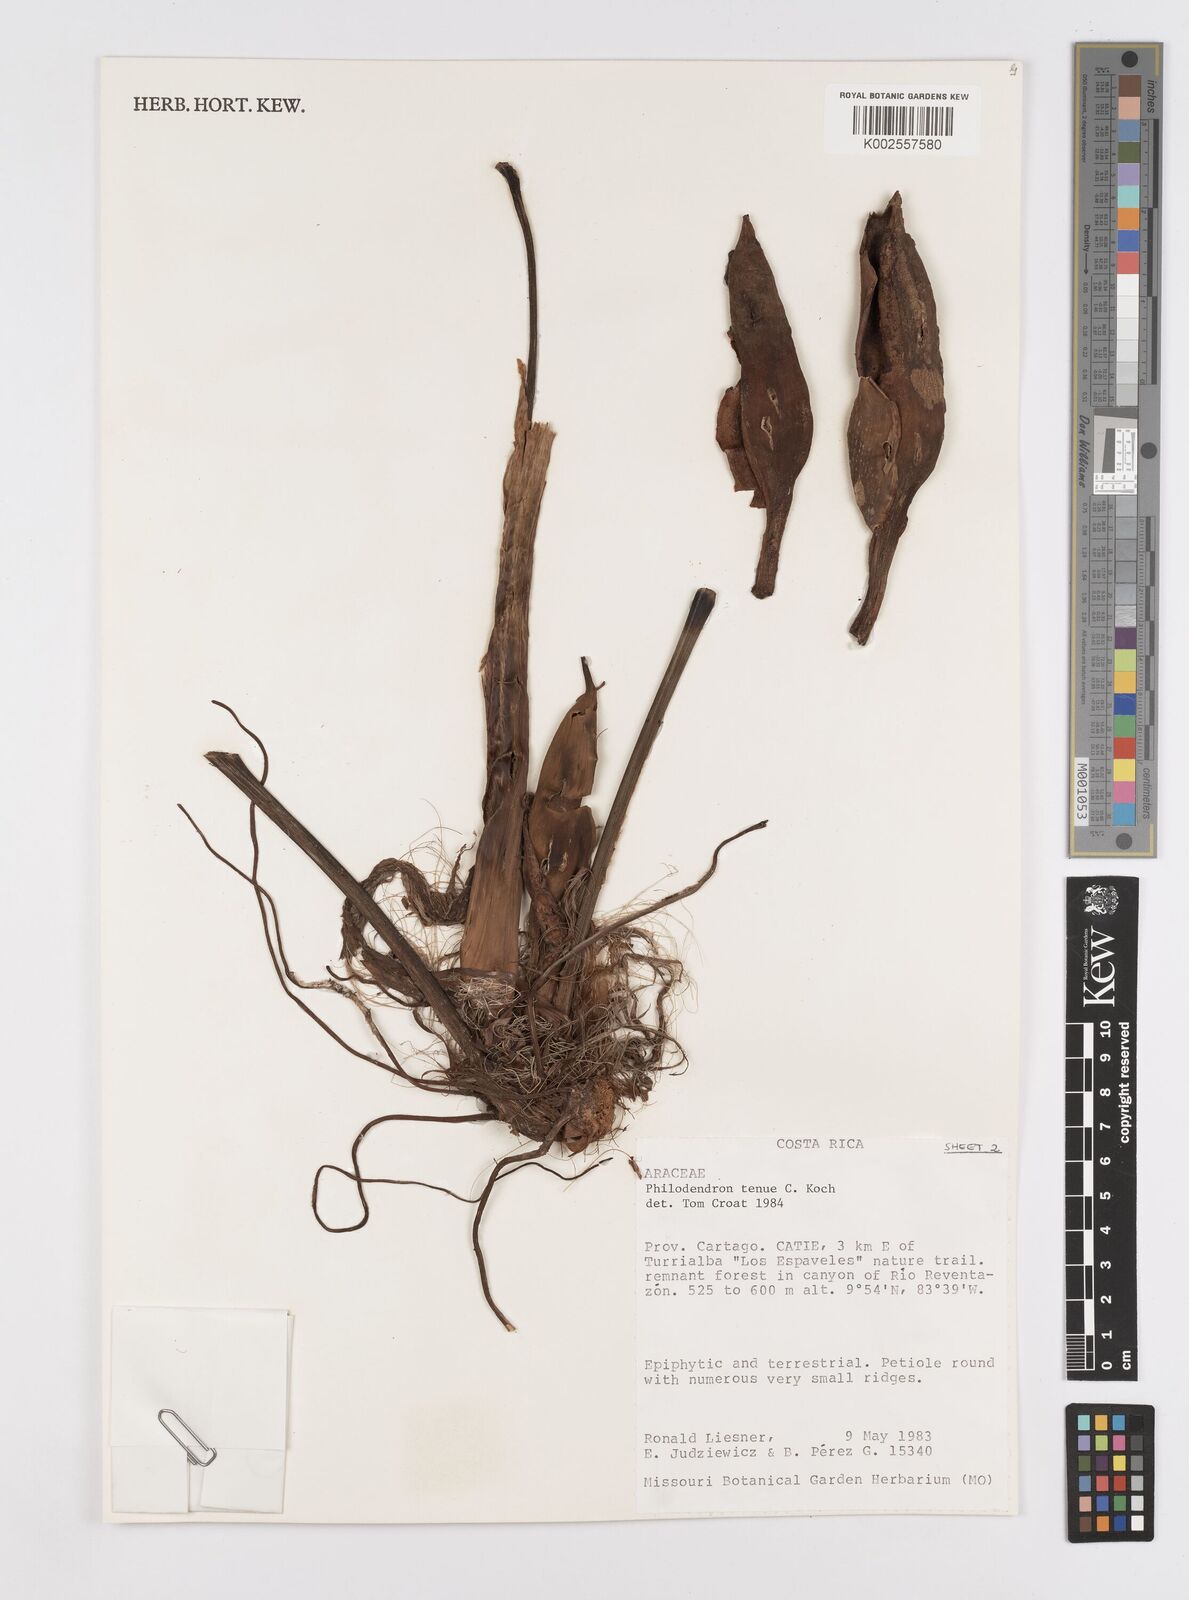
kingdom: Plantae
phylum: Tracheophyta
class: Liliopsida
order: Alismatales
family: Araceae
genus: Philodendron
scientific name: Philodendron tenue
